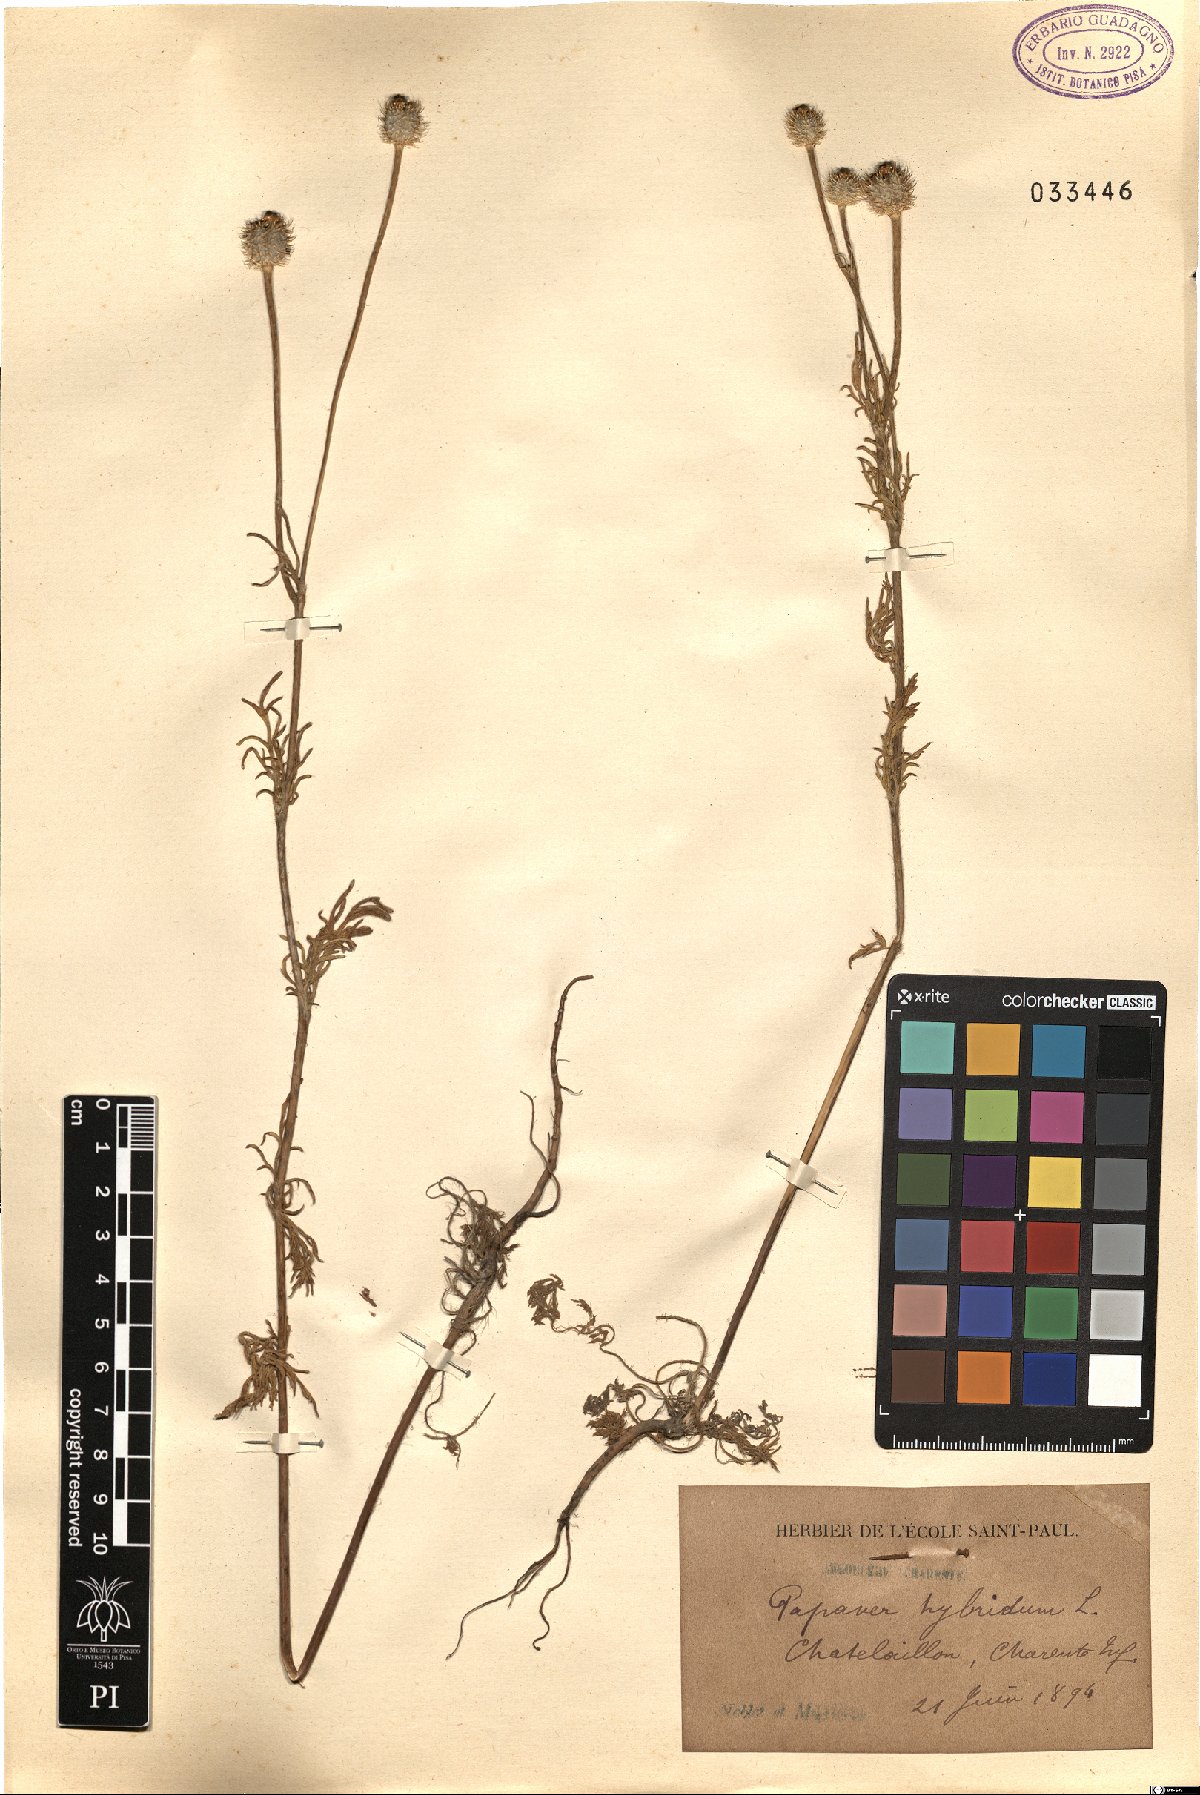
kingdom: Plantae
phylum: Tracheophyta
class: Magnoliopsida
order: Ranunculales
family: Papaveraceae
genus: Roemeria
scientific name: Roemeria hispida
